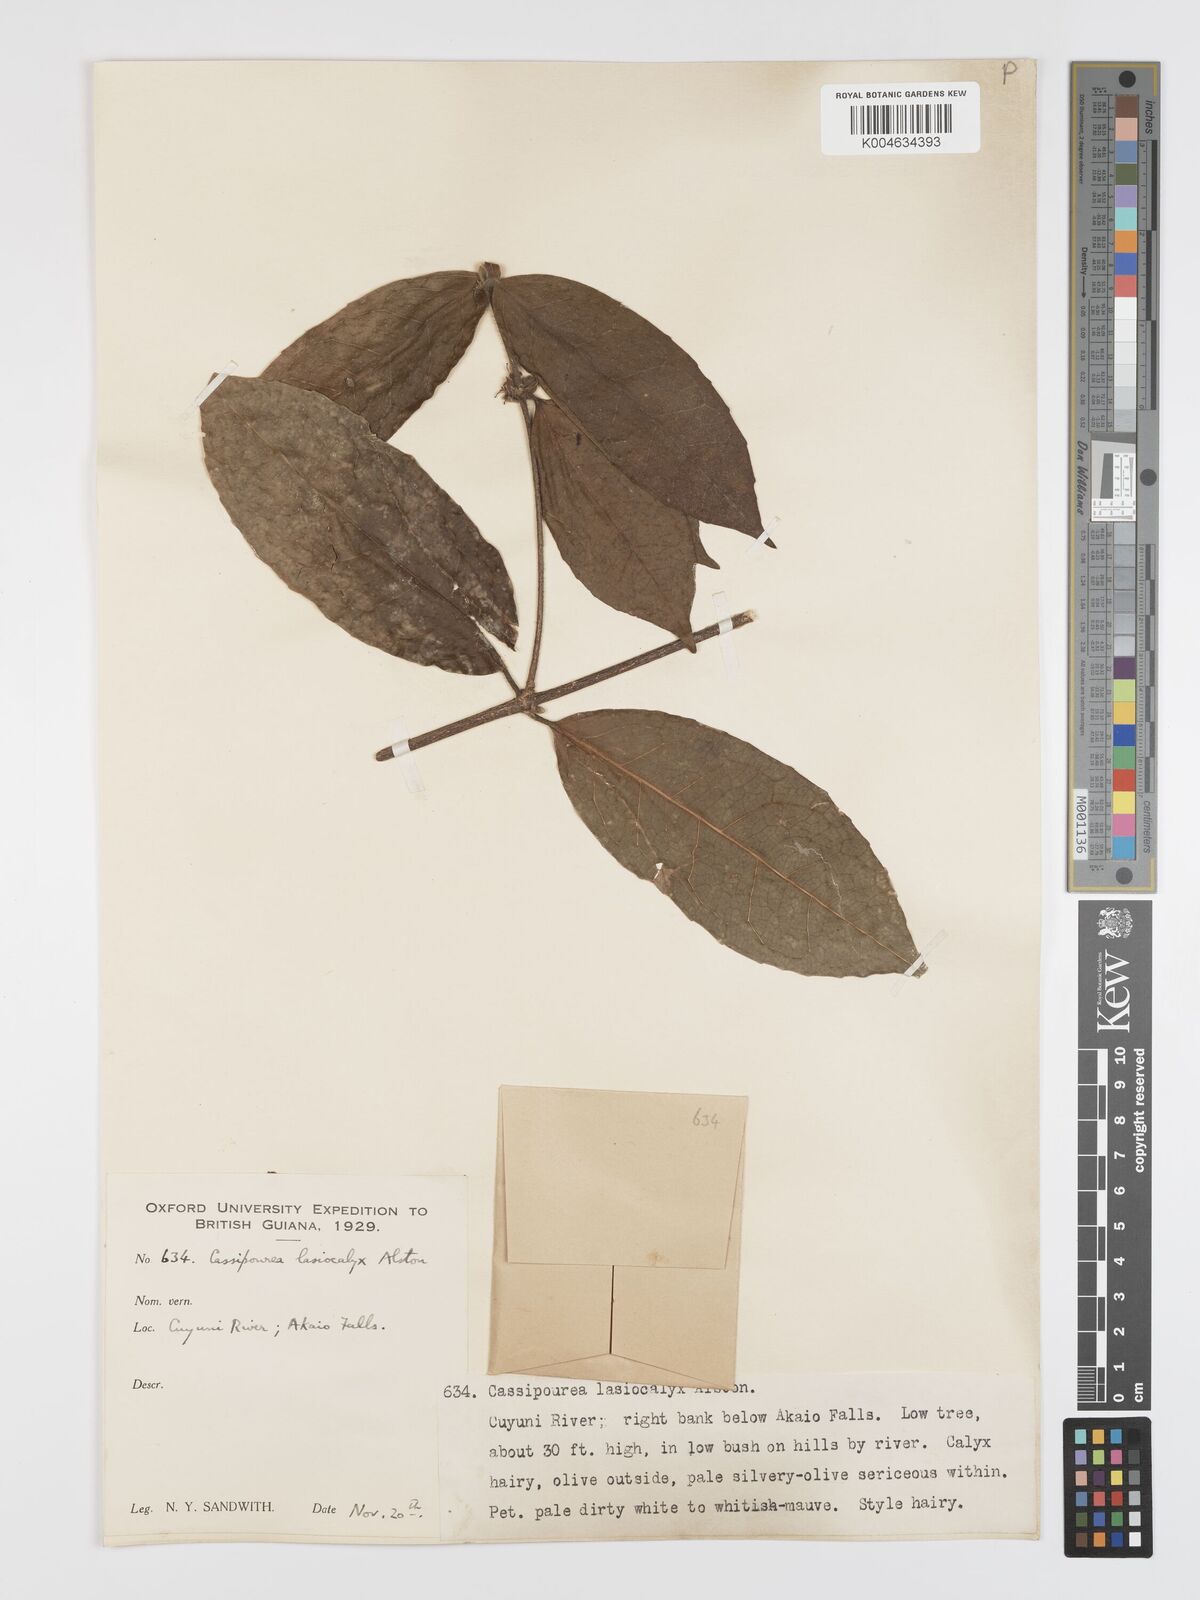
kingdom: Plantae
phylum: Tracheophyta
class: Magnoliopsida
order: Malpighiales
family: Rhizophoraceae
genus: Cassipourea
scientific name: Cassipourea lasiocalyx
